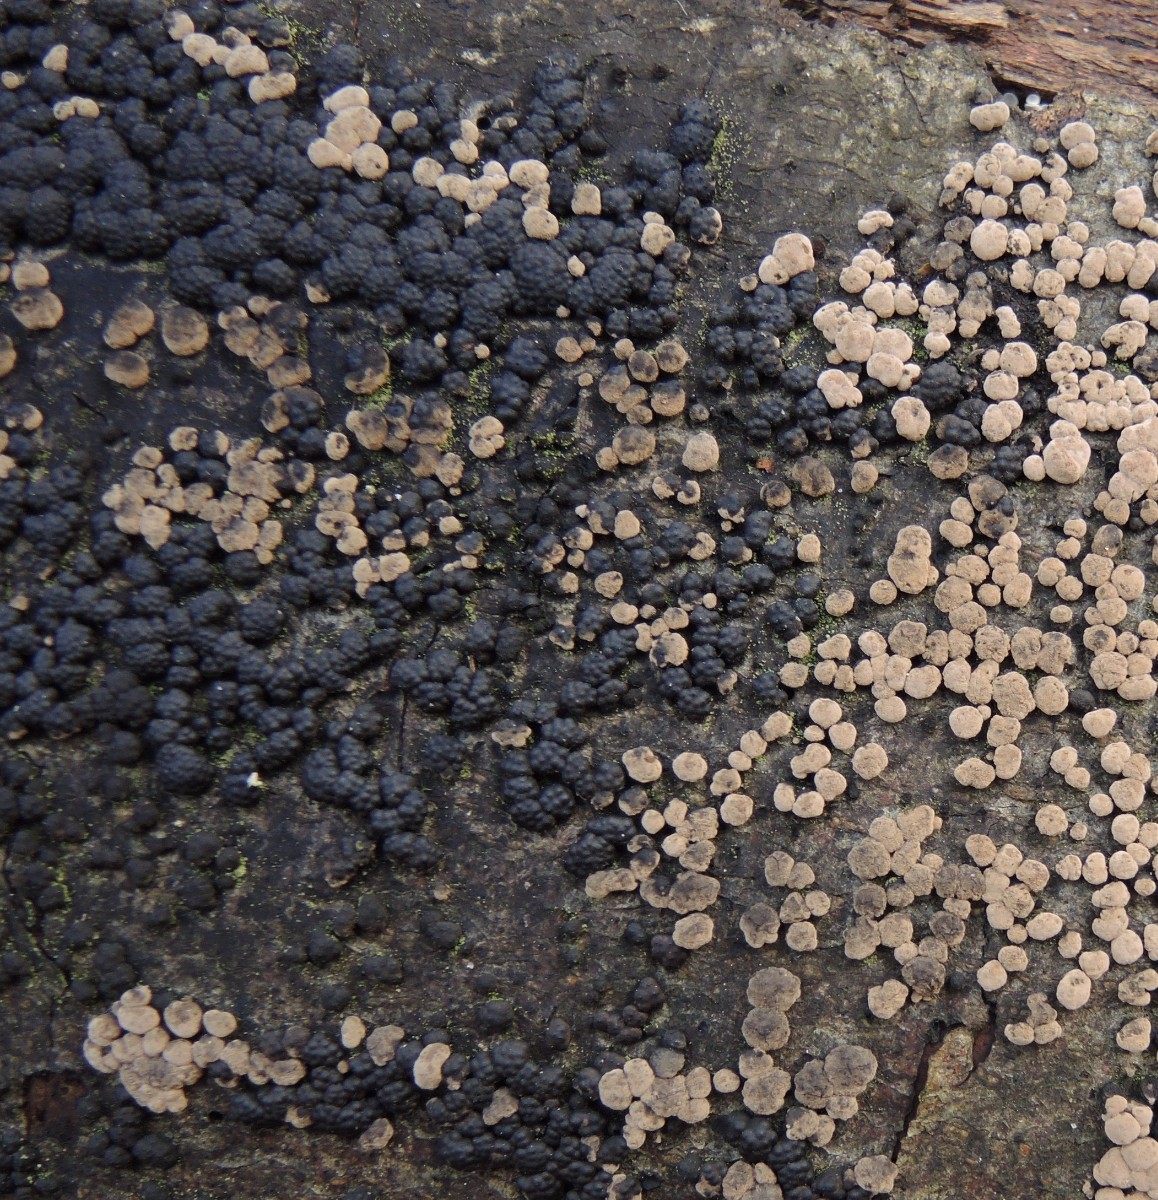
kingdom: Fungi
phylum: Ascomycota
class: Sordariomycetes
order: Xylariales
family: Hypoxylaceae
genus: Jackrogersella
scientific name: Jackrogersella cohaerens
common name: sammenflydende kulbær
